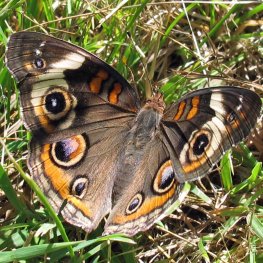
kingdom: Animalia
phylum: Arthropoda
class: Insecta
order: Lepidoptera
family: Nymphalidae
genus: Junonia
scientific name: Junonia coenia
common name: Common Buckeye
